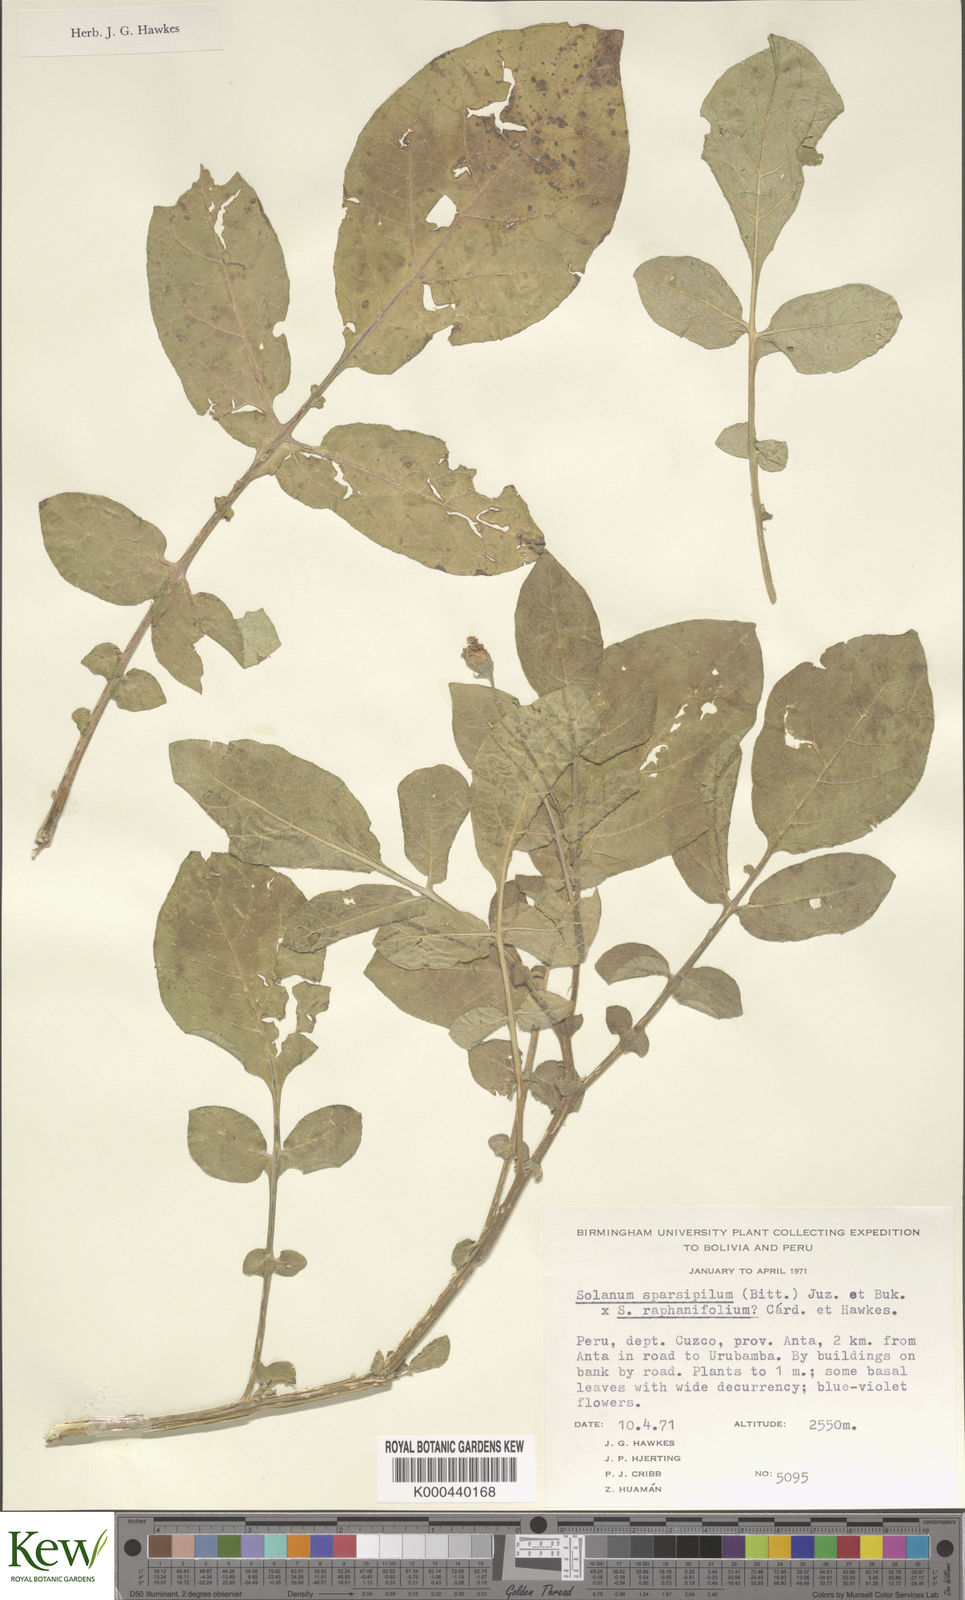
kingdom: Plantae
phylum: Tracheophyta
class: Magnoliopsida
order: Solanales
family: Solanaceae
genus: Solanum
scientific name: Solanum
